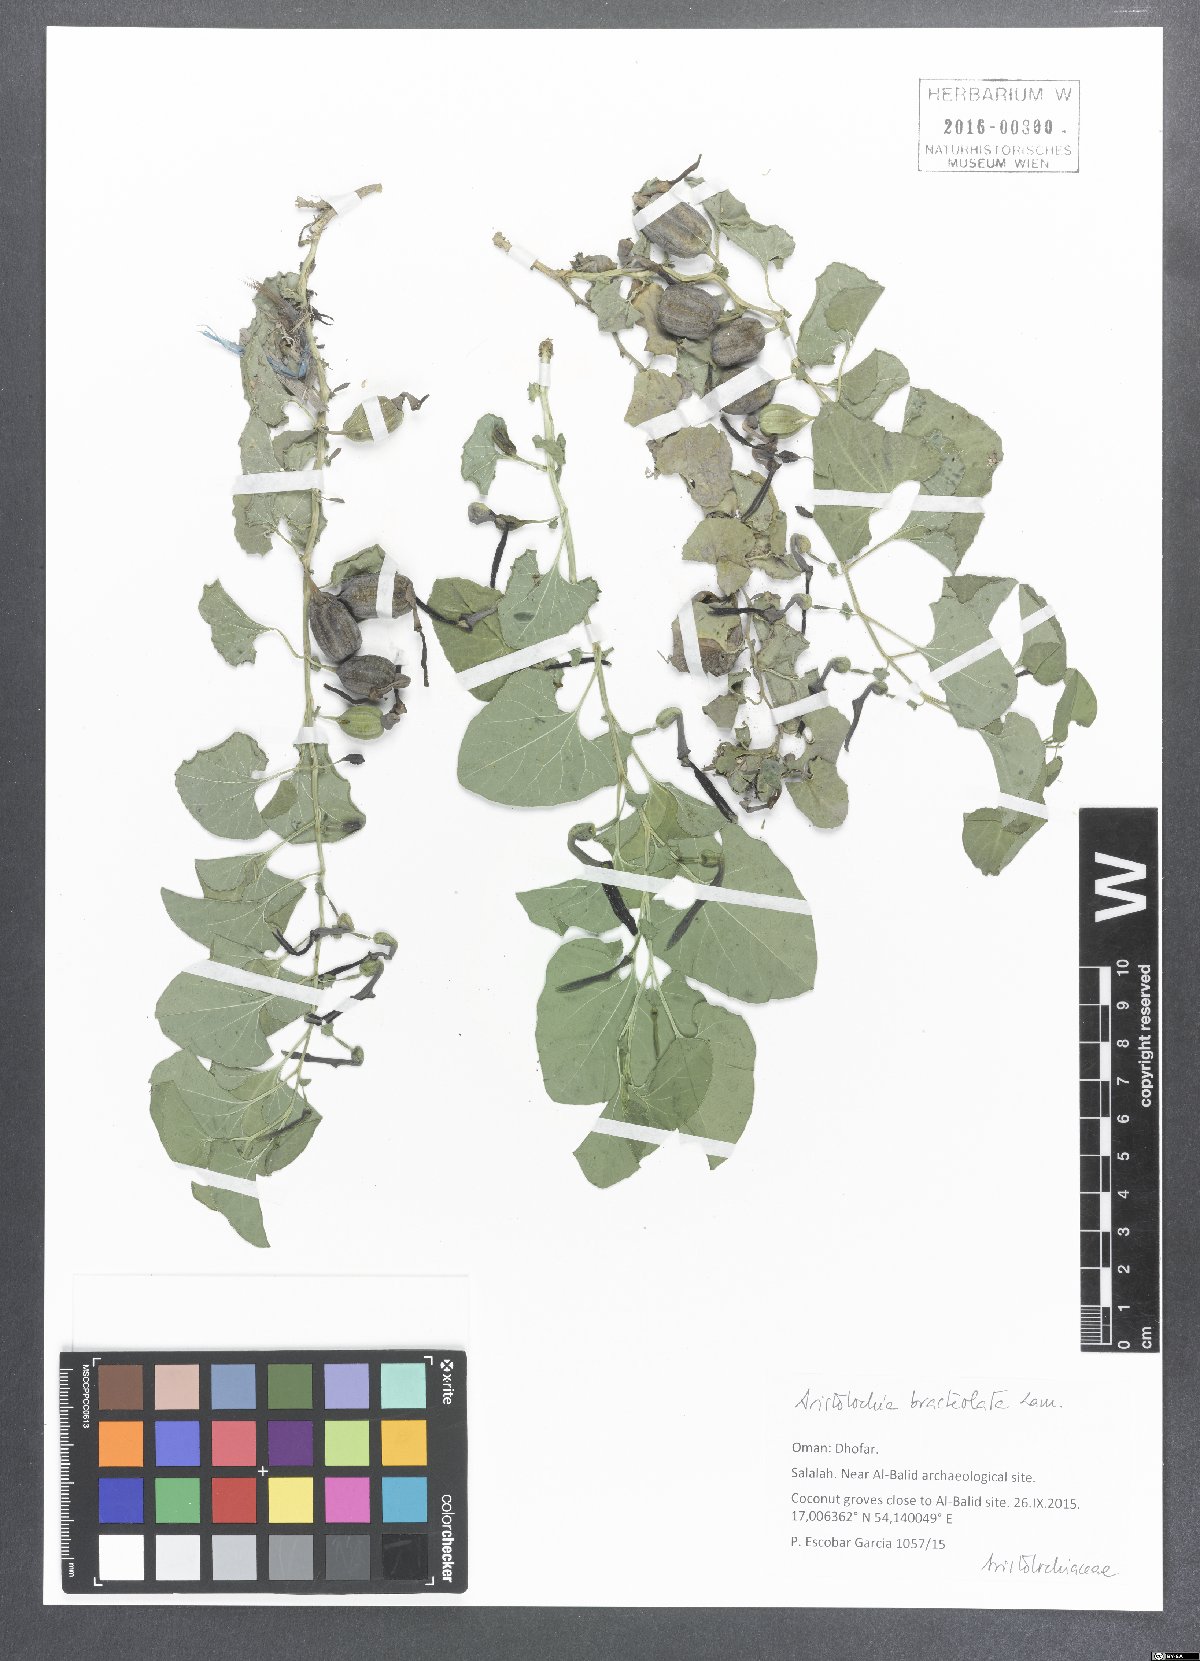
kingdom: Plantae
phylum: Tracheophyta
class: Magnoliopsida
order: Piperales
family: Aristolochiaceae
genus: Aristolochia
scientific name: Aristolochia bracteolata
